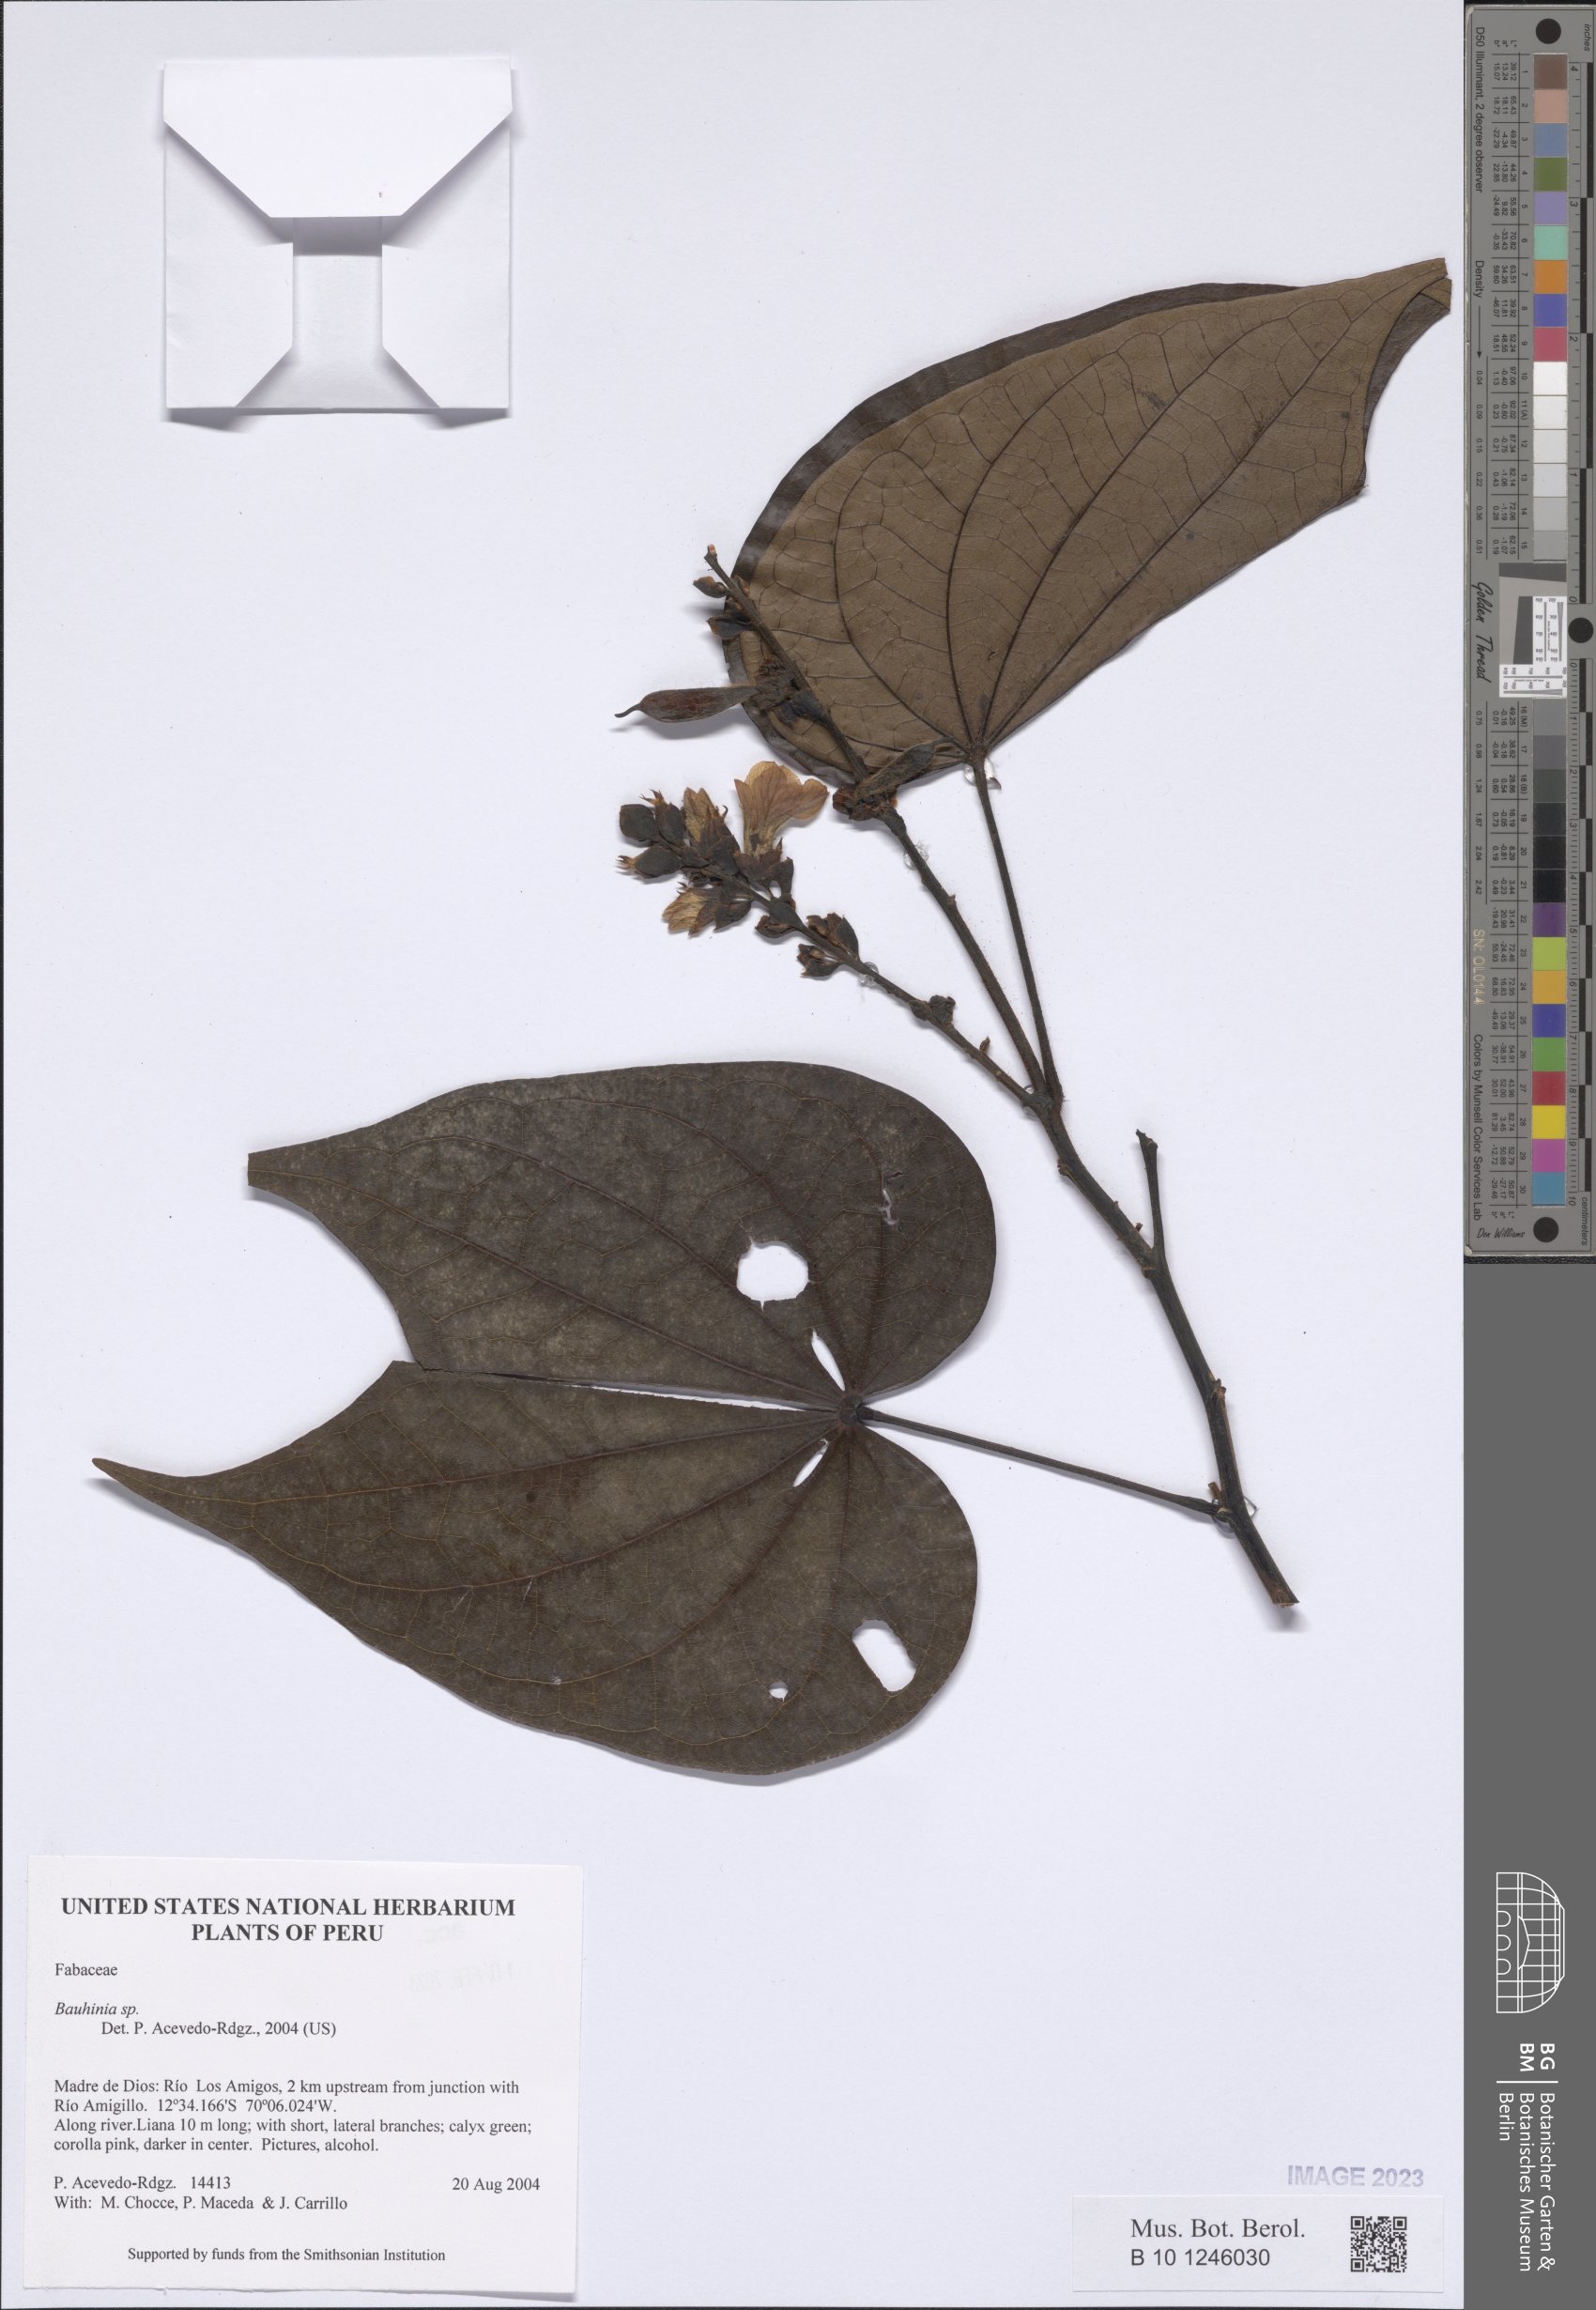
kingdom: Plantae
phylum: Tracheophyta
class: Magnoliopsida
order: Fabales
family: Fabaceae
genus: Bauhinia
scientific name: Bauhinia
